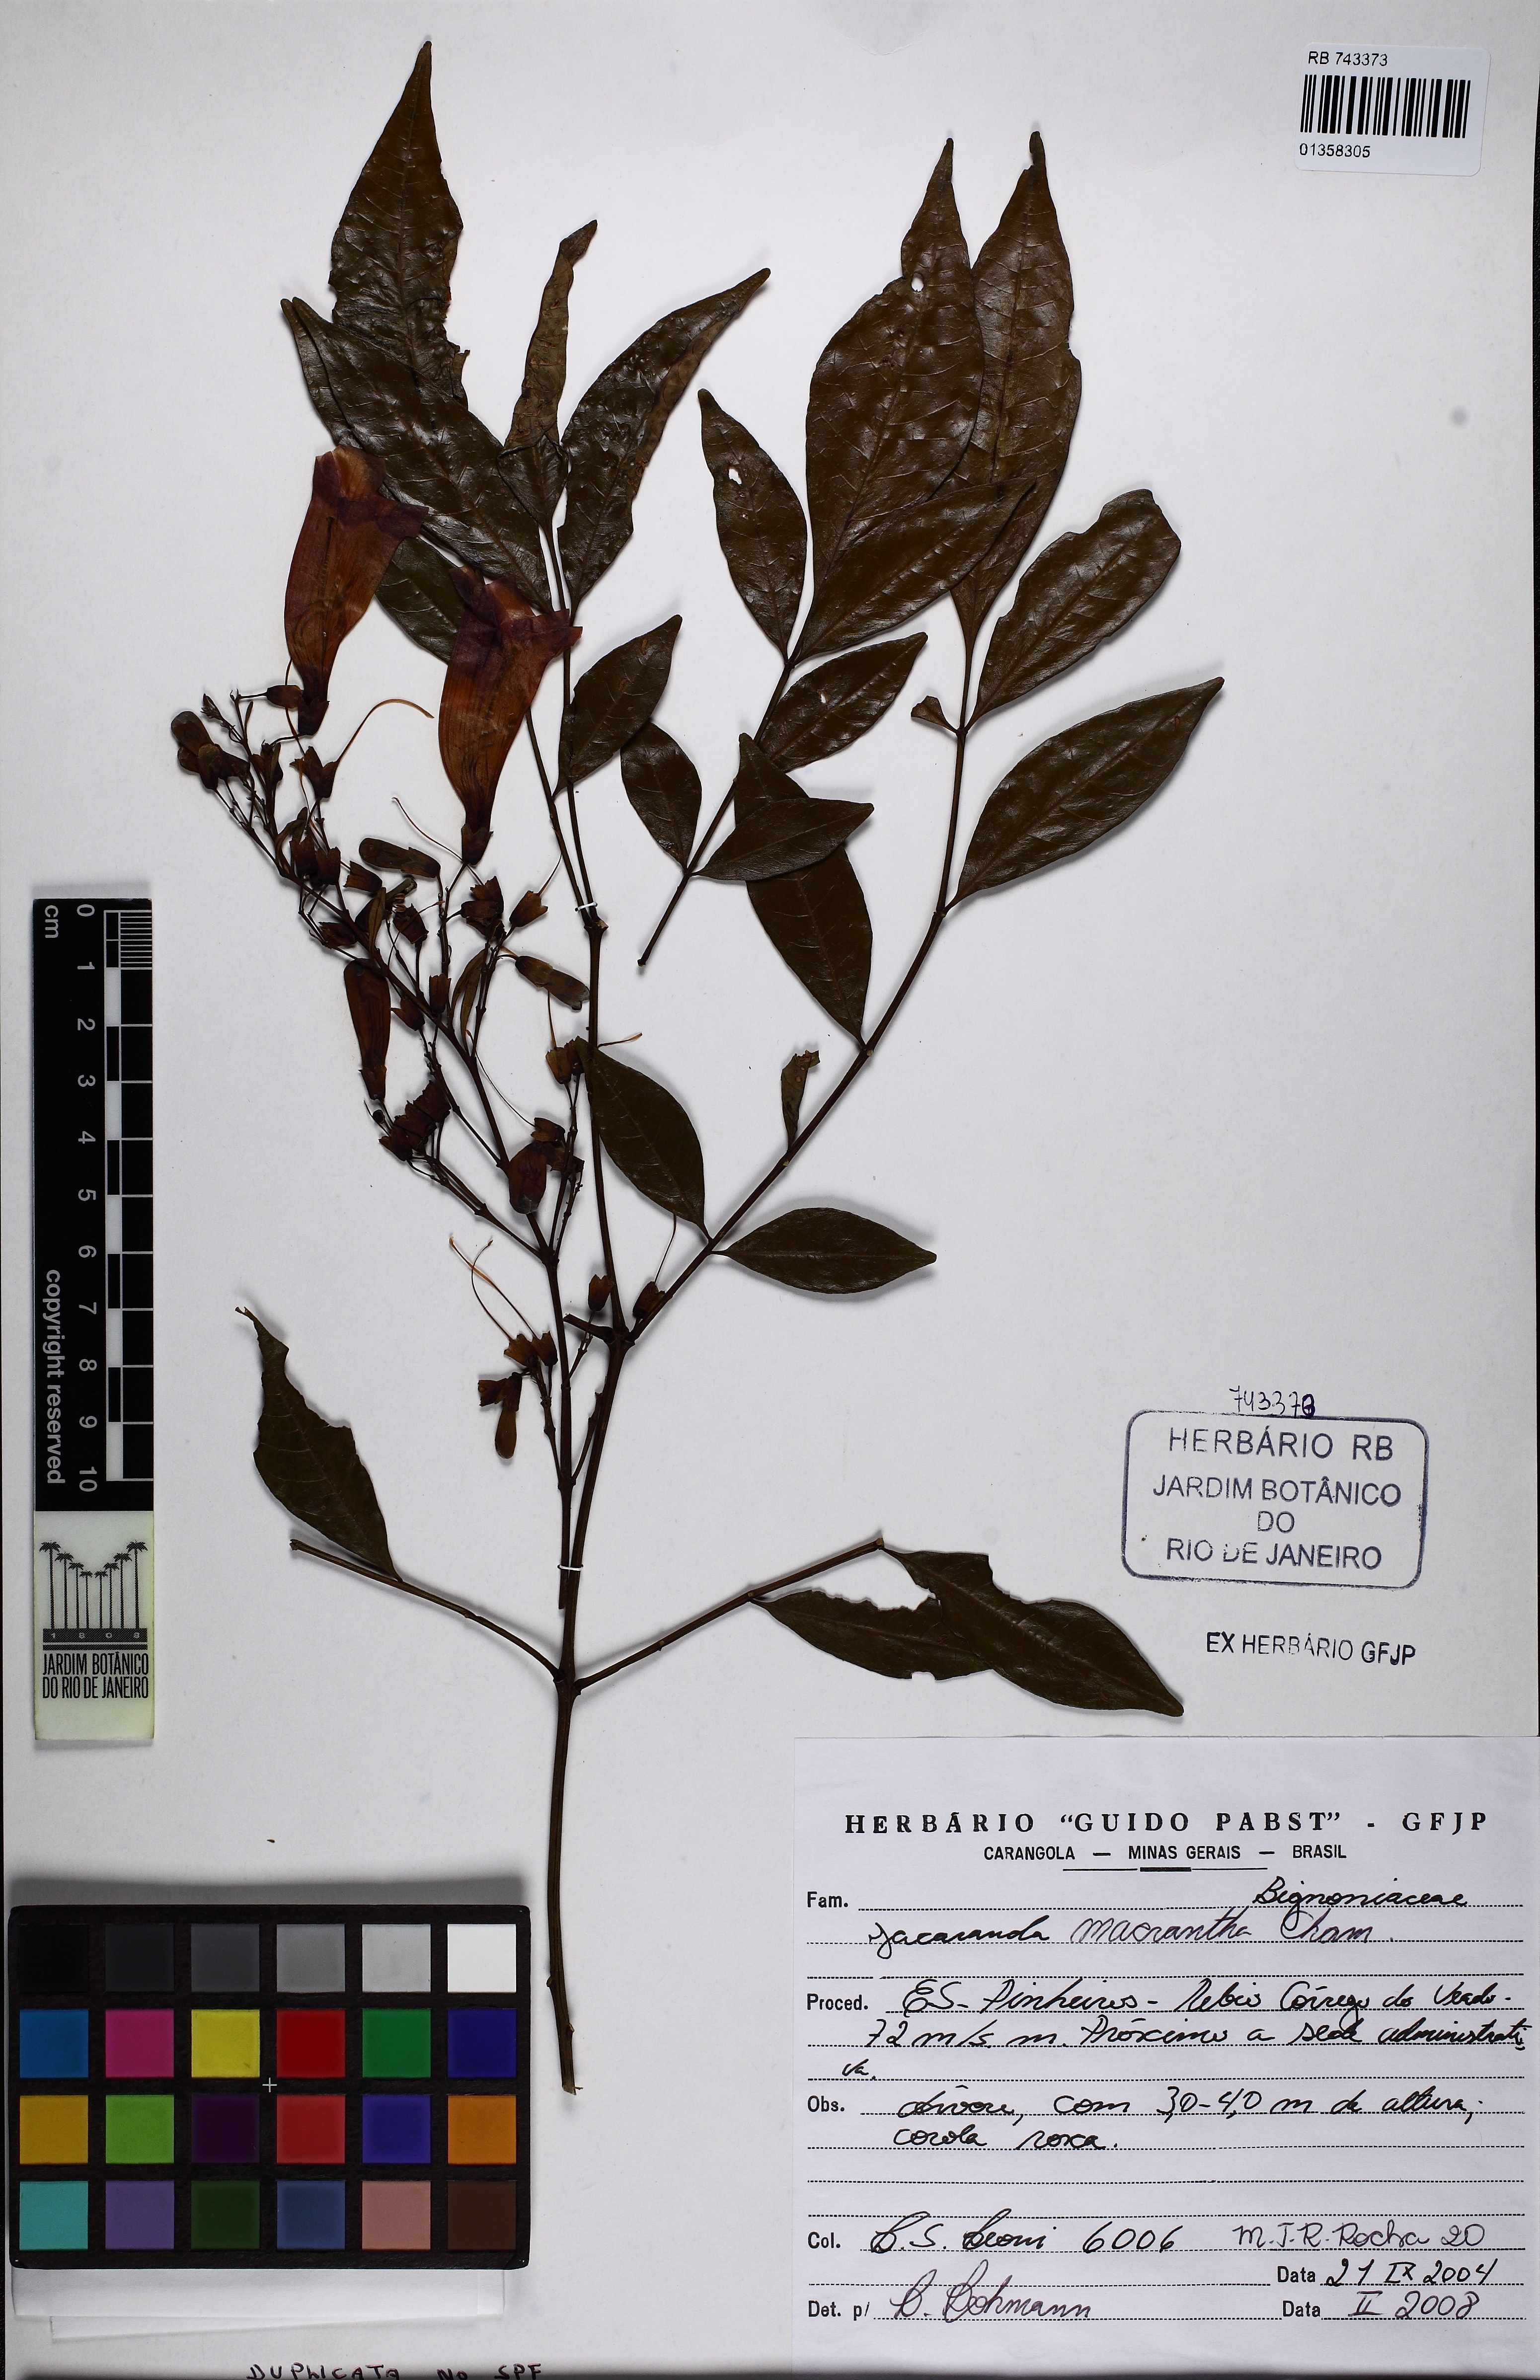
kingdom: Plantae
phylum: Tracheophyta
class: Magnoliopsida
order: Lamiales
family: Bignoniaceae
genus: Jacaranda
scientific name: Jacaranda macrantha
